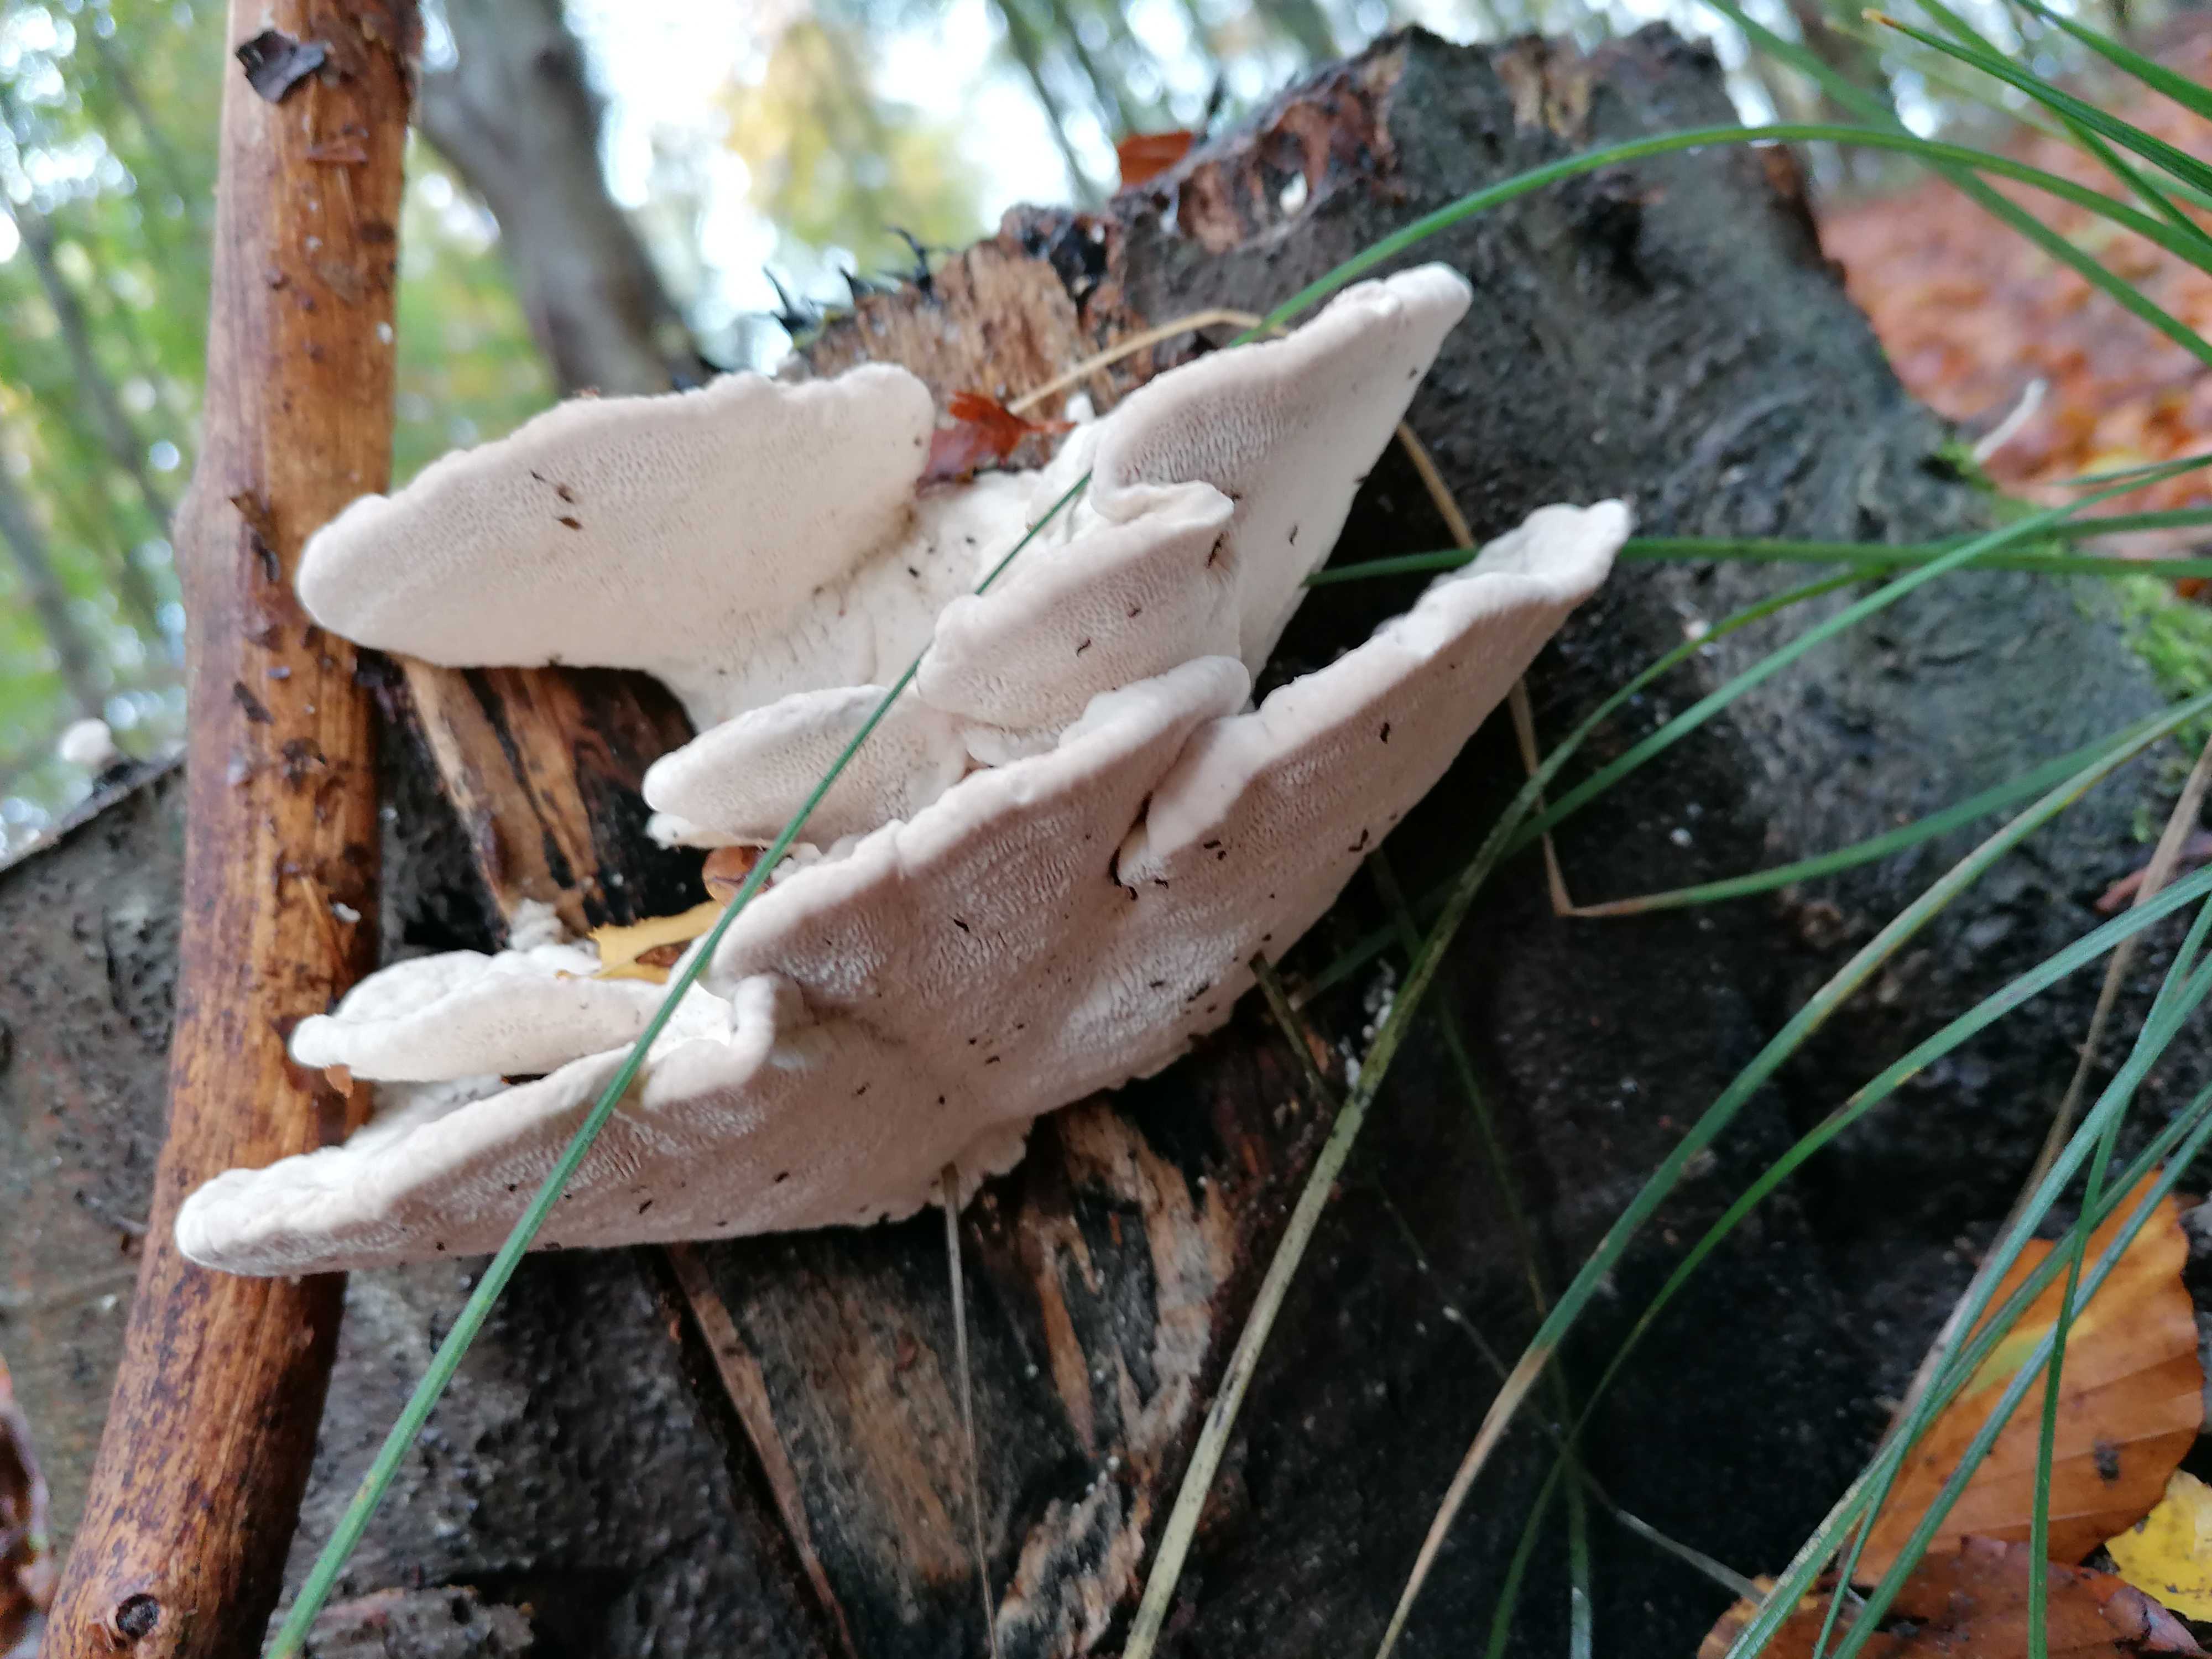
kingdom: Fungi
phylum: Basidiomycota
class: Agaricomycetes
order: Polyporales
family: Polyporaceae
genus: Trametes
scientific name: Trametes gibbosa
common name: puklet læderporesvamp
